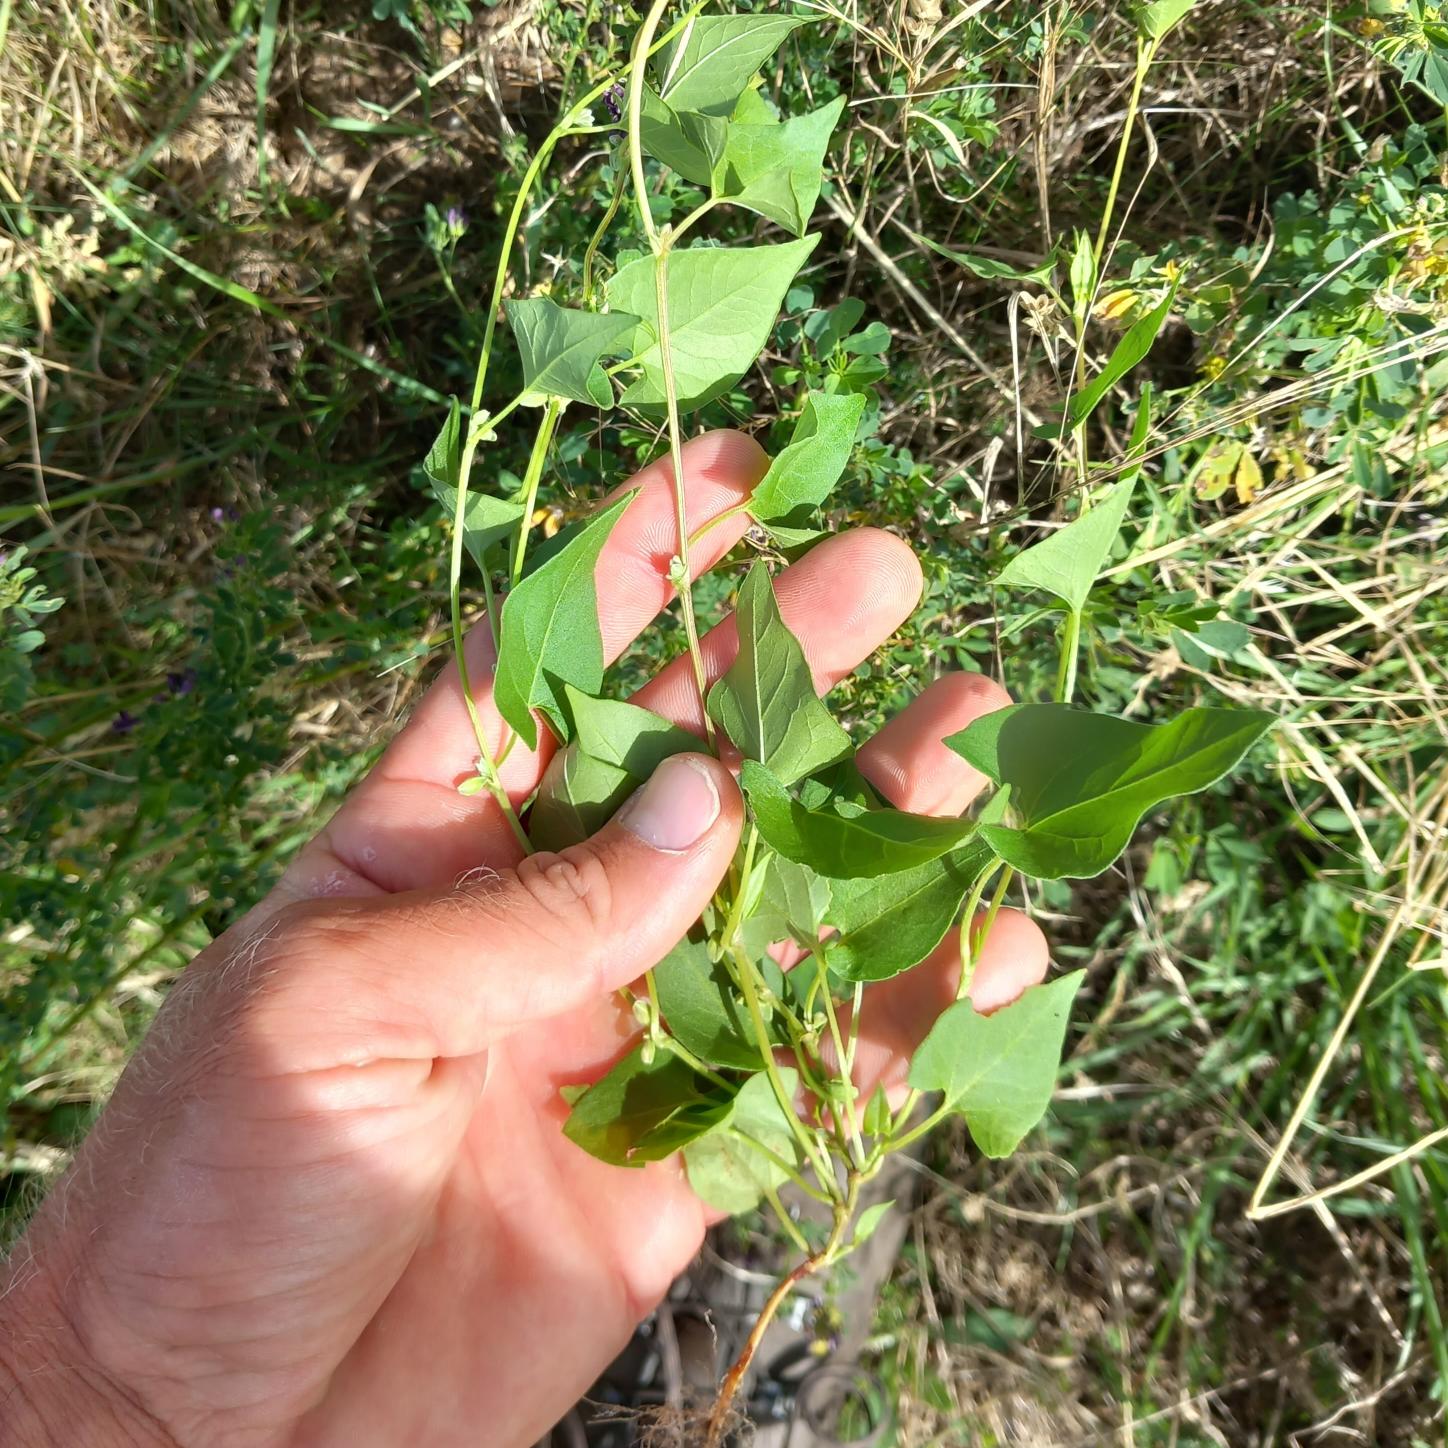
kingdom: Plantae
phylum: Tracheophyta
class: Magnoliopsida
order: Caryophyllales
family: Polygonaceae
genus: Fallopia
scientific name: Fallopia convolvulus
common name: Snerle-pileurt
